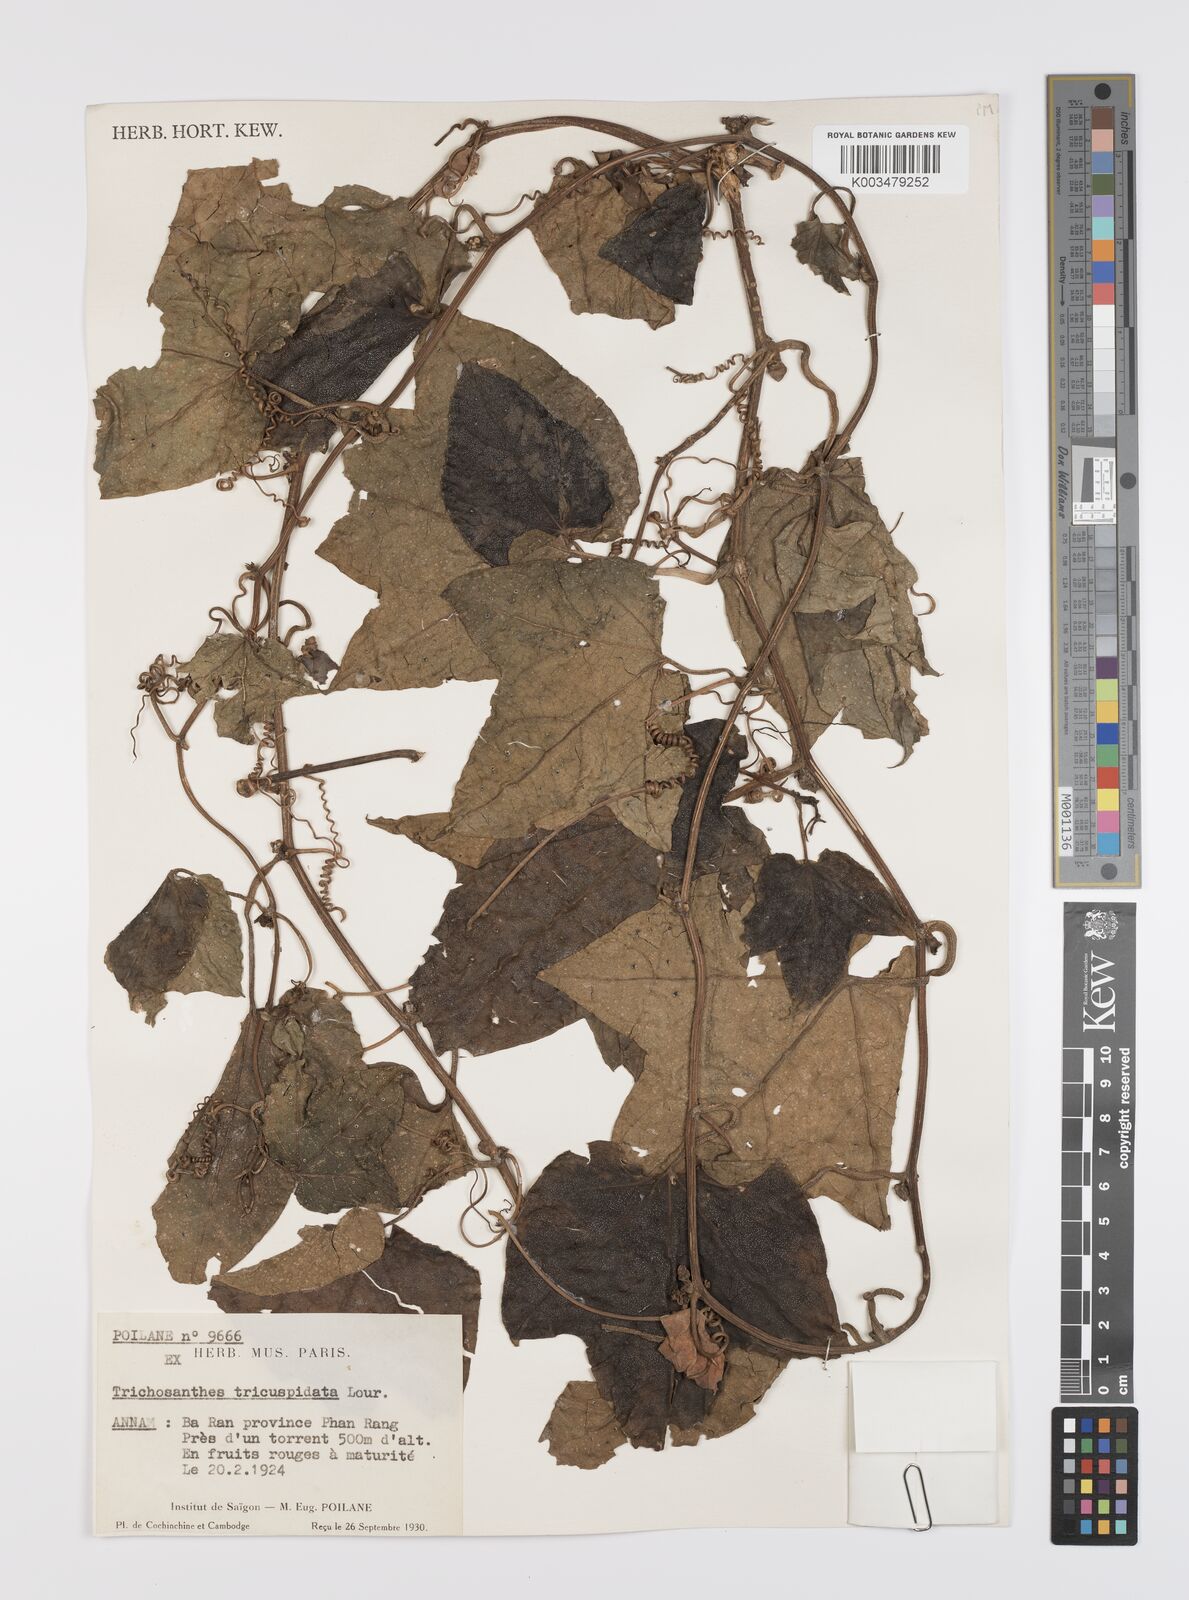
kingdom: Plantae
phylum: Tracheophyta
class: Magnoliopsida
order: Cucurbitales
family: Cucurbitaceae
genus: Trichosanthes
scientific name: Trichosanthes tricuspidata
